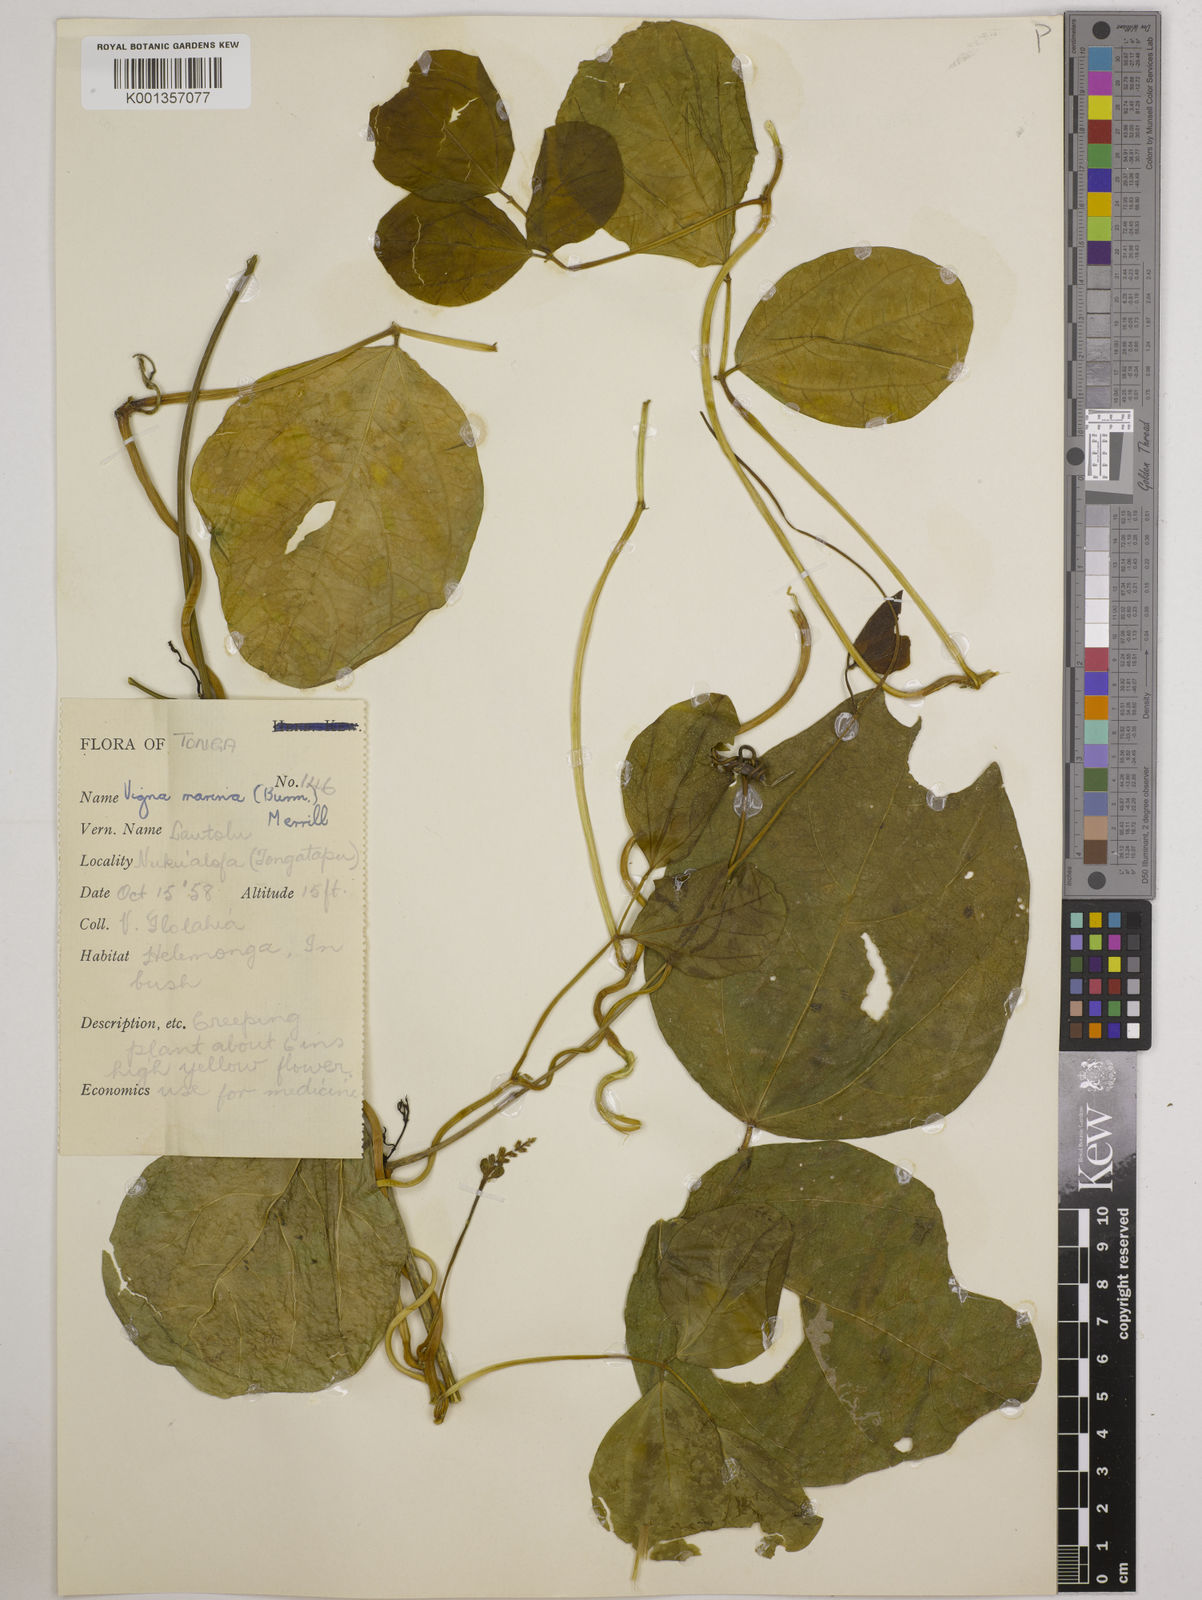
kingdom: Plantae
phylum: Tracheophyta
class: Magnoliopsida
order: Fabales
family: Fabaceae
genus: Vigna
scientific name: Vigna marina
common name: Dune-bean
